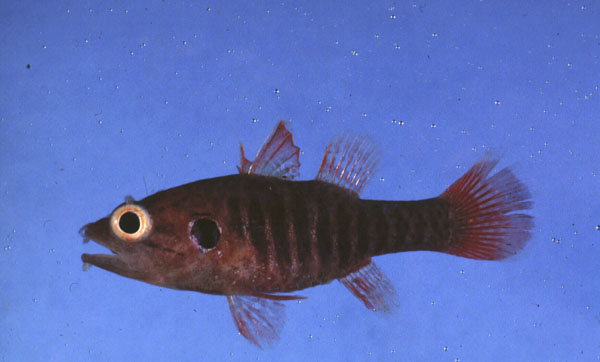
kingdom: Animalia
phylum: Chordata
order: Perciformes
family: Apogonidae
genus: Fowleria
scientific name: Fowleria marmorata
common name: Eared cardinalfish
